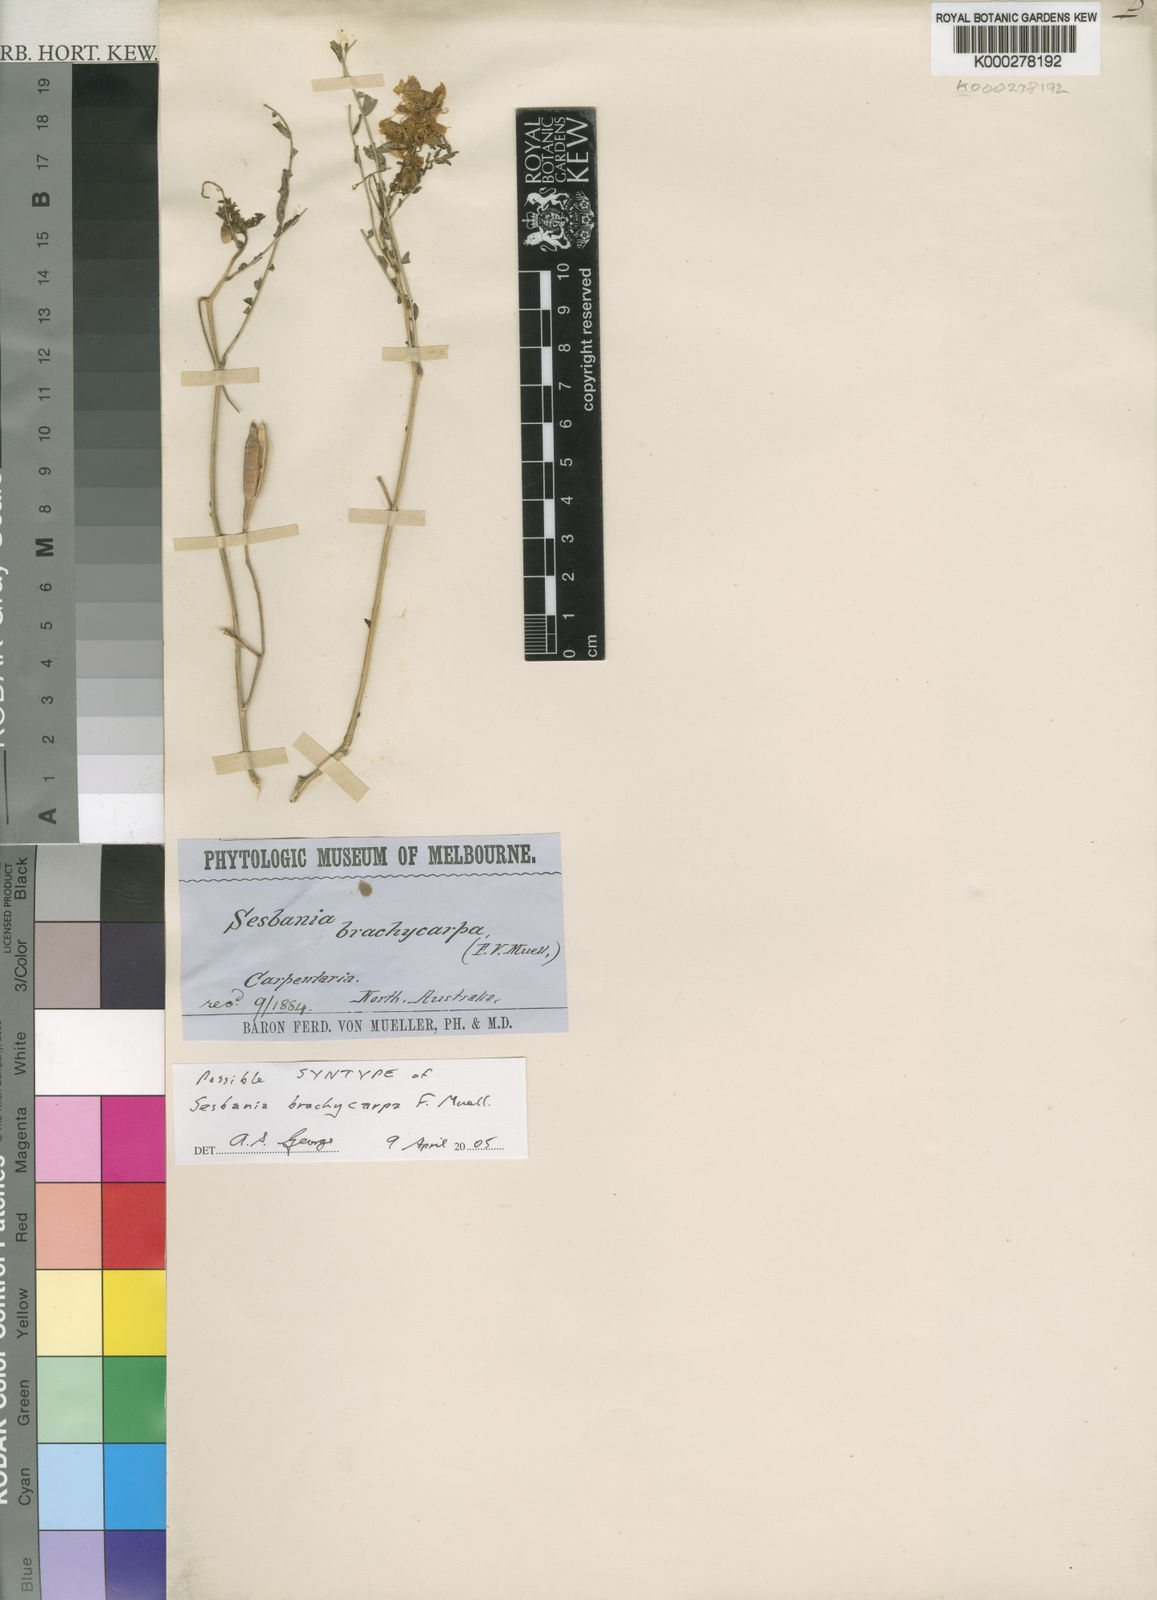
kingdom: Plantae
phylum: Tracheophyta
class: Magnoliopsida
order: Fabales
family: Fabaceae
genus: Sesbania
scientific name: Sesbania chippendalei
